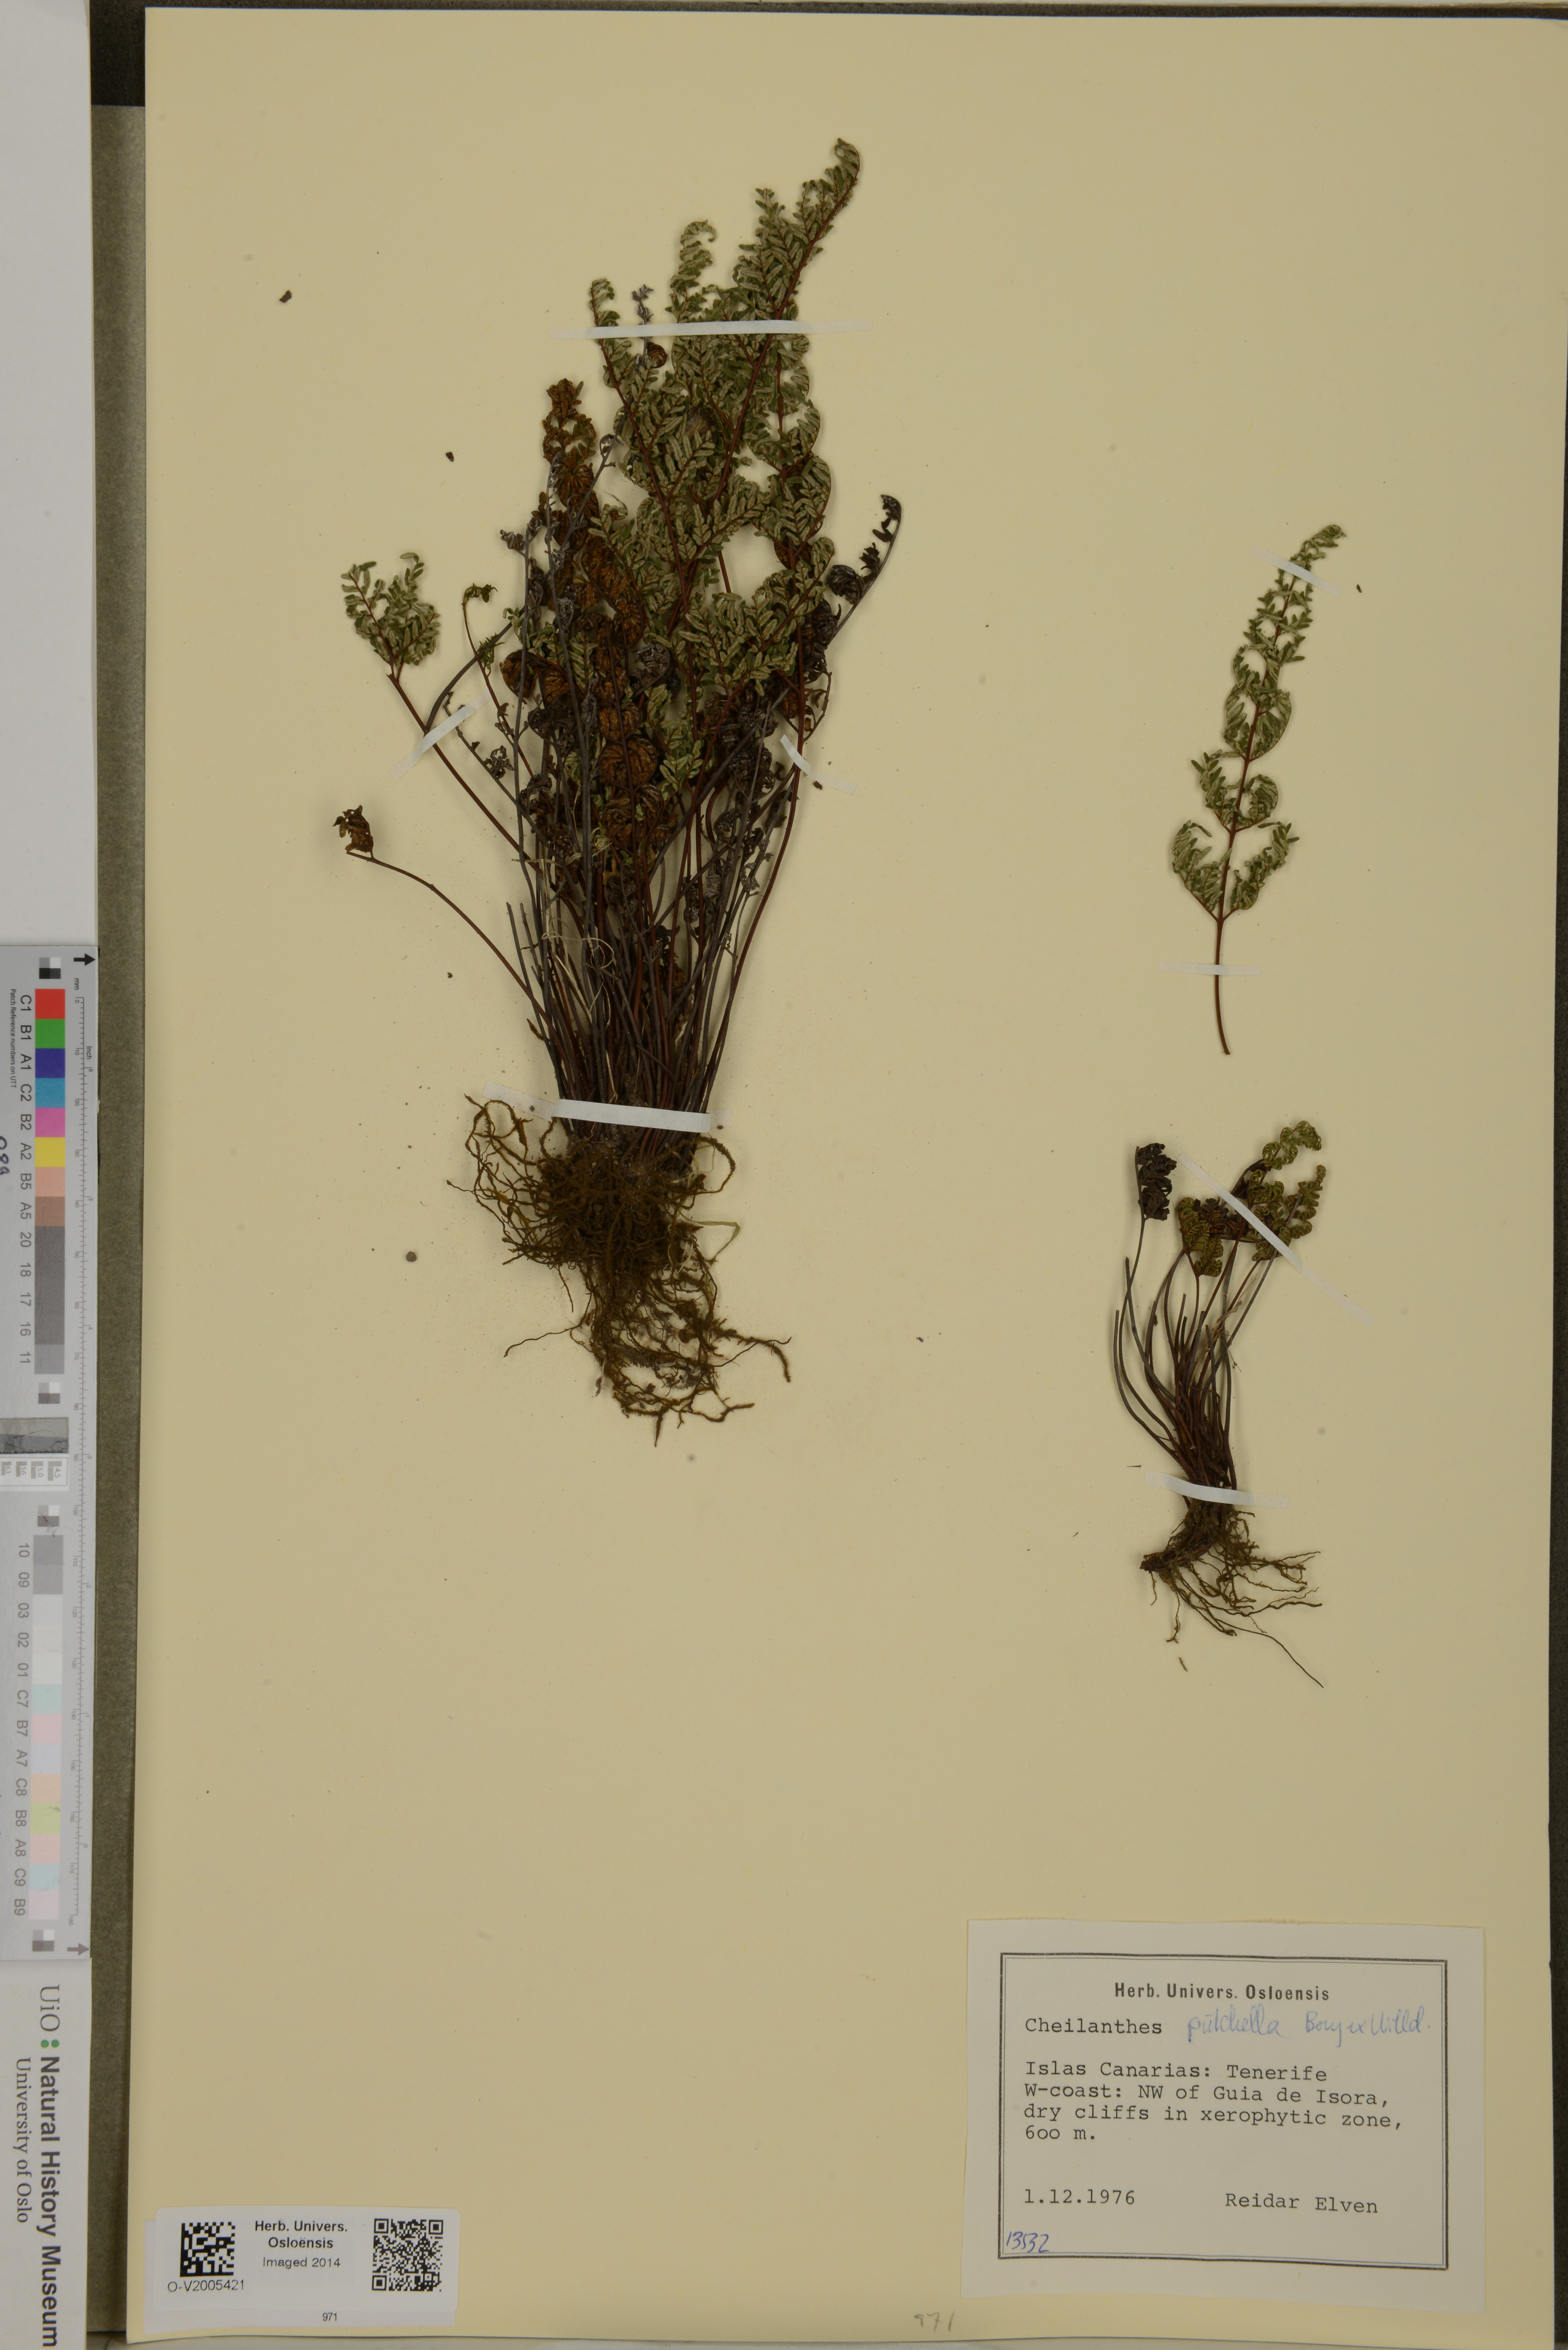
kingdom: Plantae
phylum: Tracheophyta
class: Polypodiopsida
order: Polypodiales
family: Pteridaceae
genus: Oeosporangium
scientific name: Oeosporangium pulchellum
